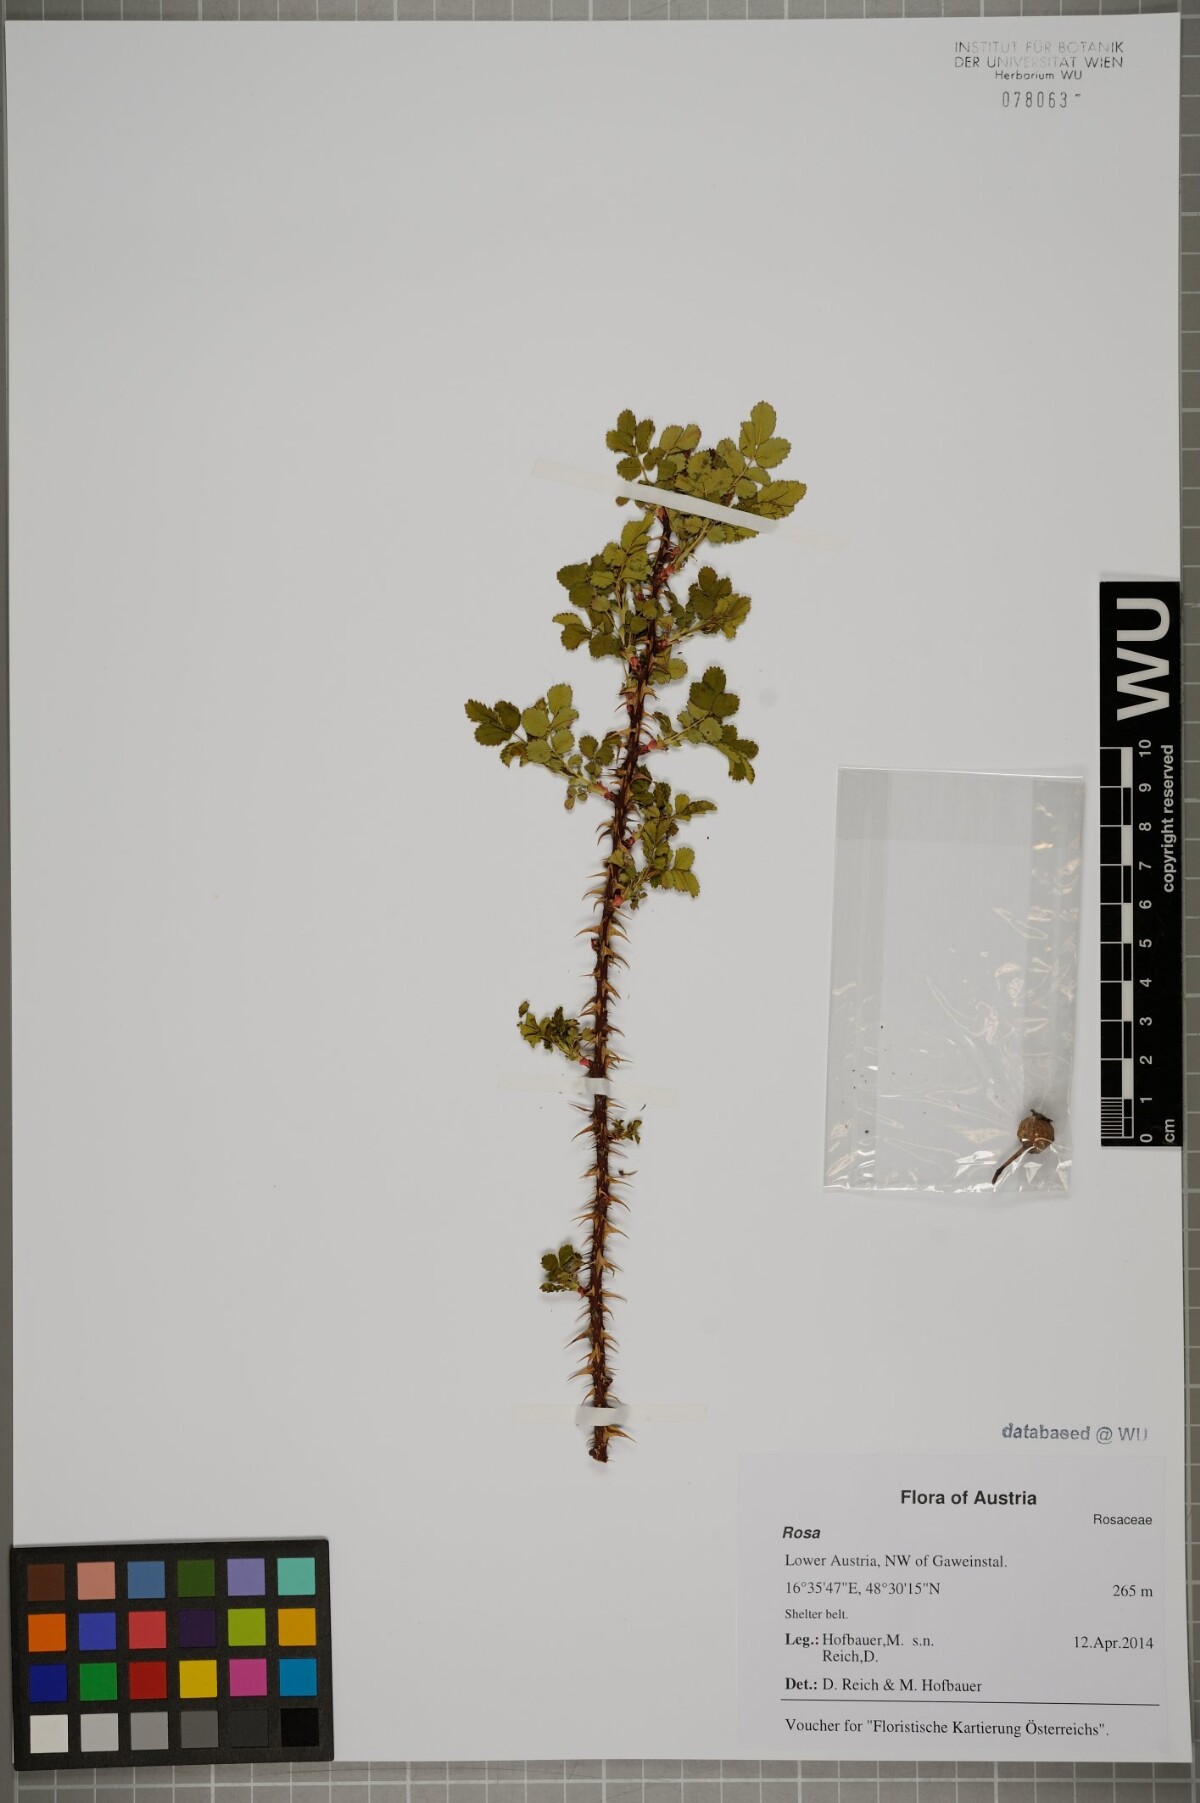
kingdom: Plantae
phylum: Tracheophyta
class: Magnoliopsida
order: Rosales
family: Rosaceae
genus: Rosa
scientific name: Rosa
